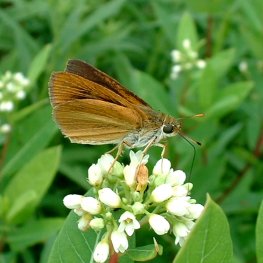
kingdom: Animalia
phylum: Arthropoda
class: Insecta
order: Lepidoptera
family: Hesperiidae
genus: Euphyes
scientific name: Euphyes dukesi
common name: Dukes' Skipper
